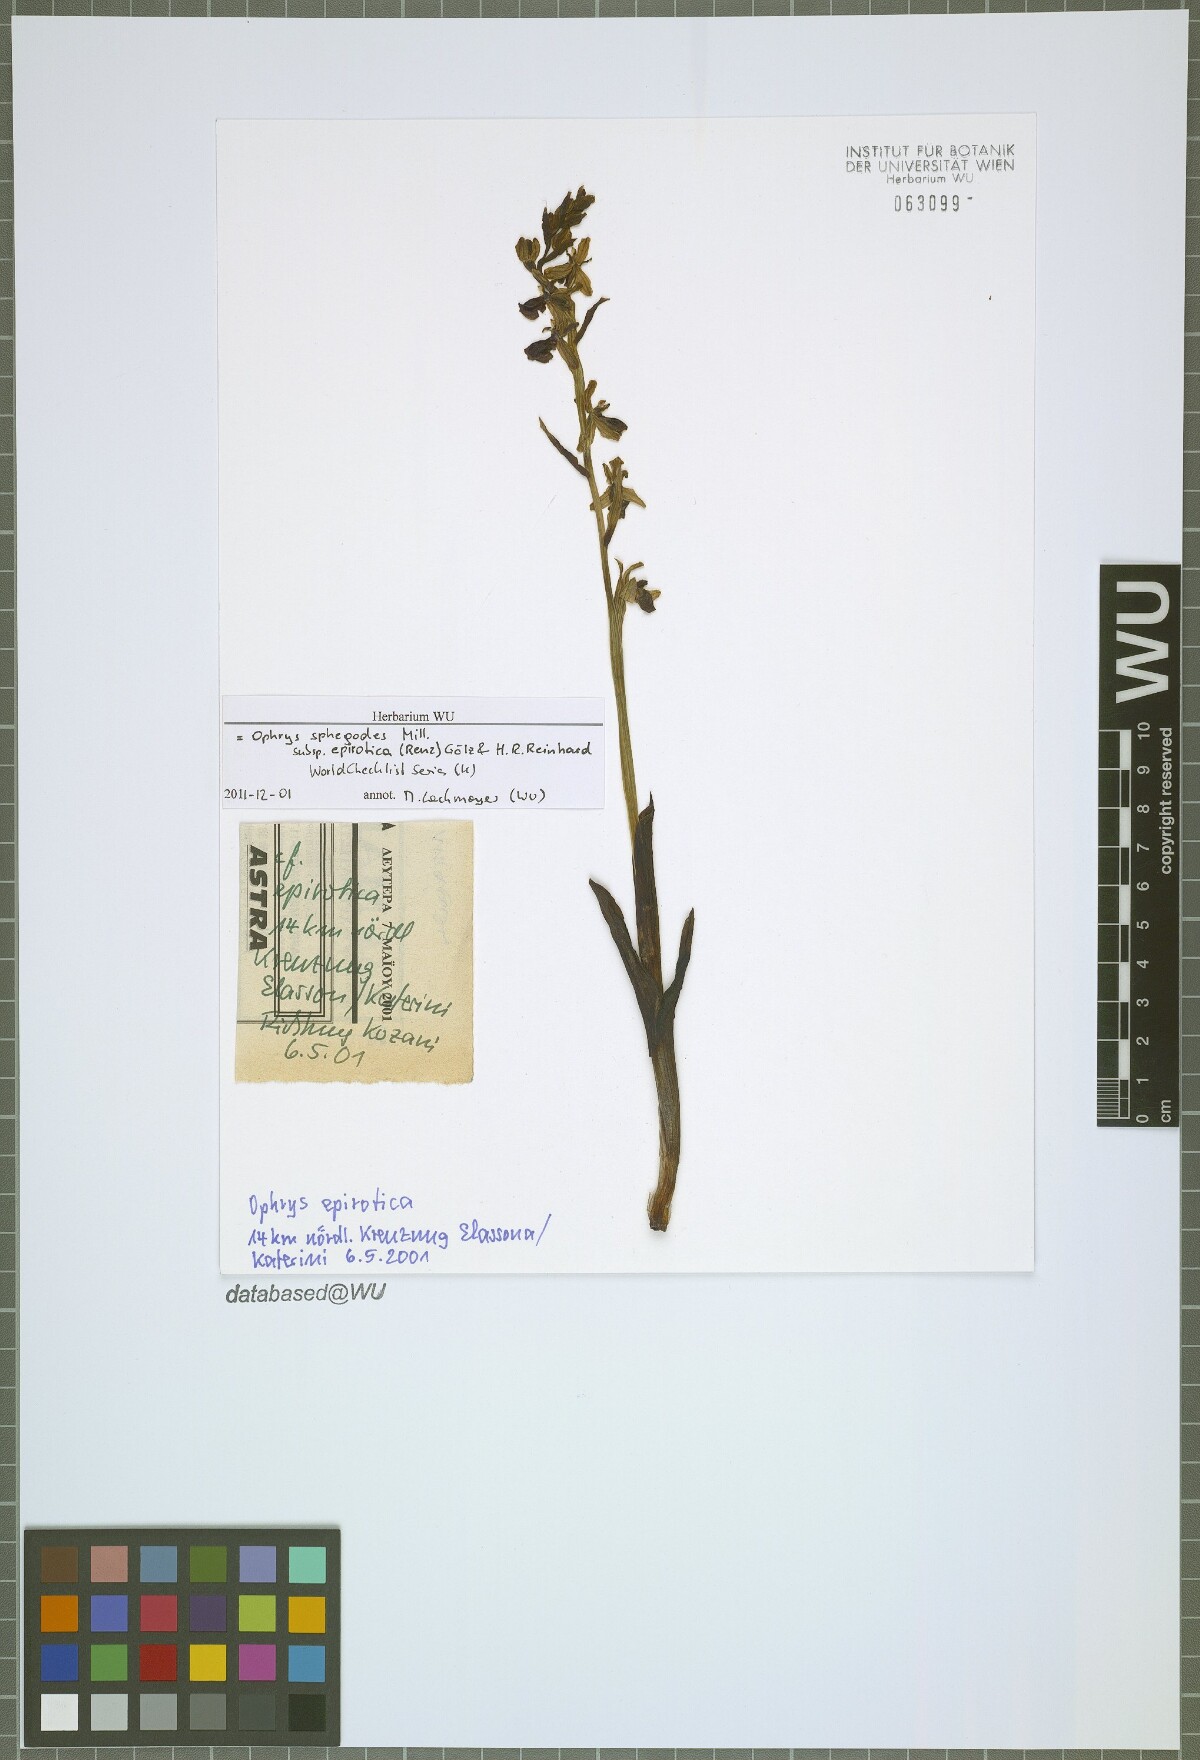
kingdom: Plantae
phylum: Tracheophyta
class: Liliopsida
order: Asparagales
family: Orchidaceae
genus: Ophrys
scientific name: Ophrys sphegodes
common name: Early spider-orchid
